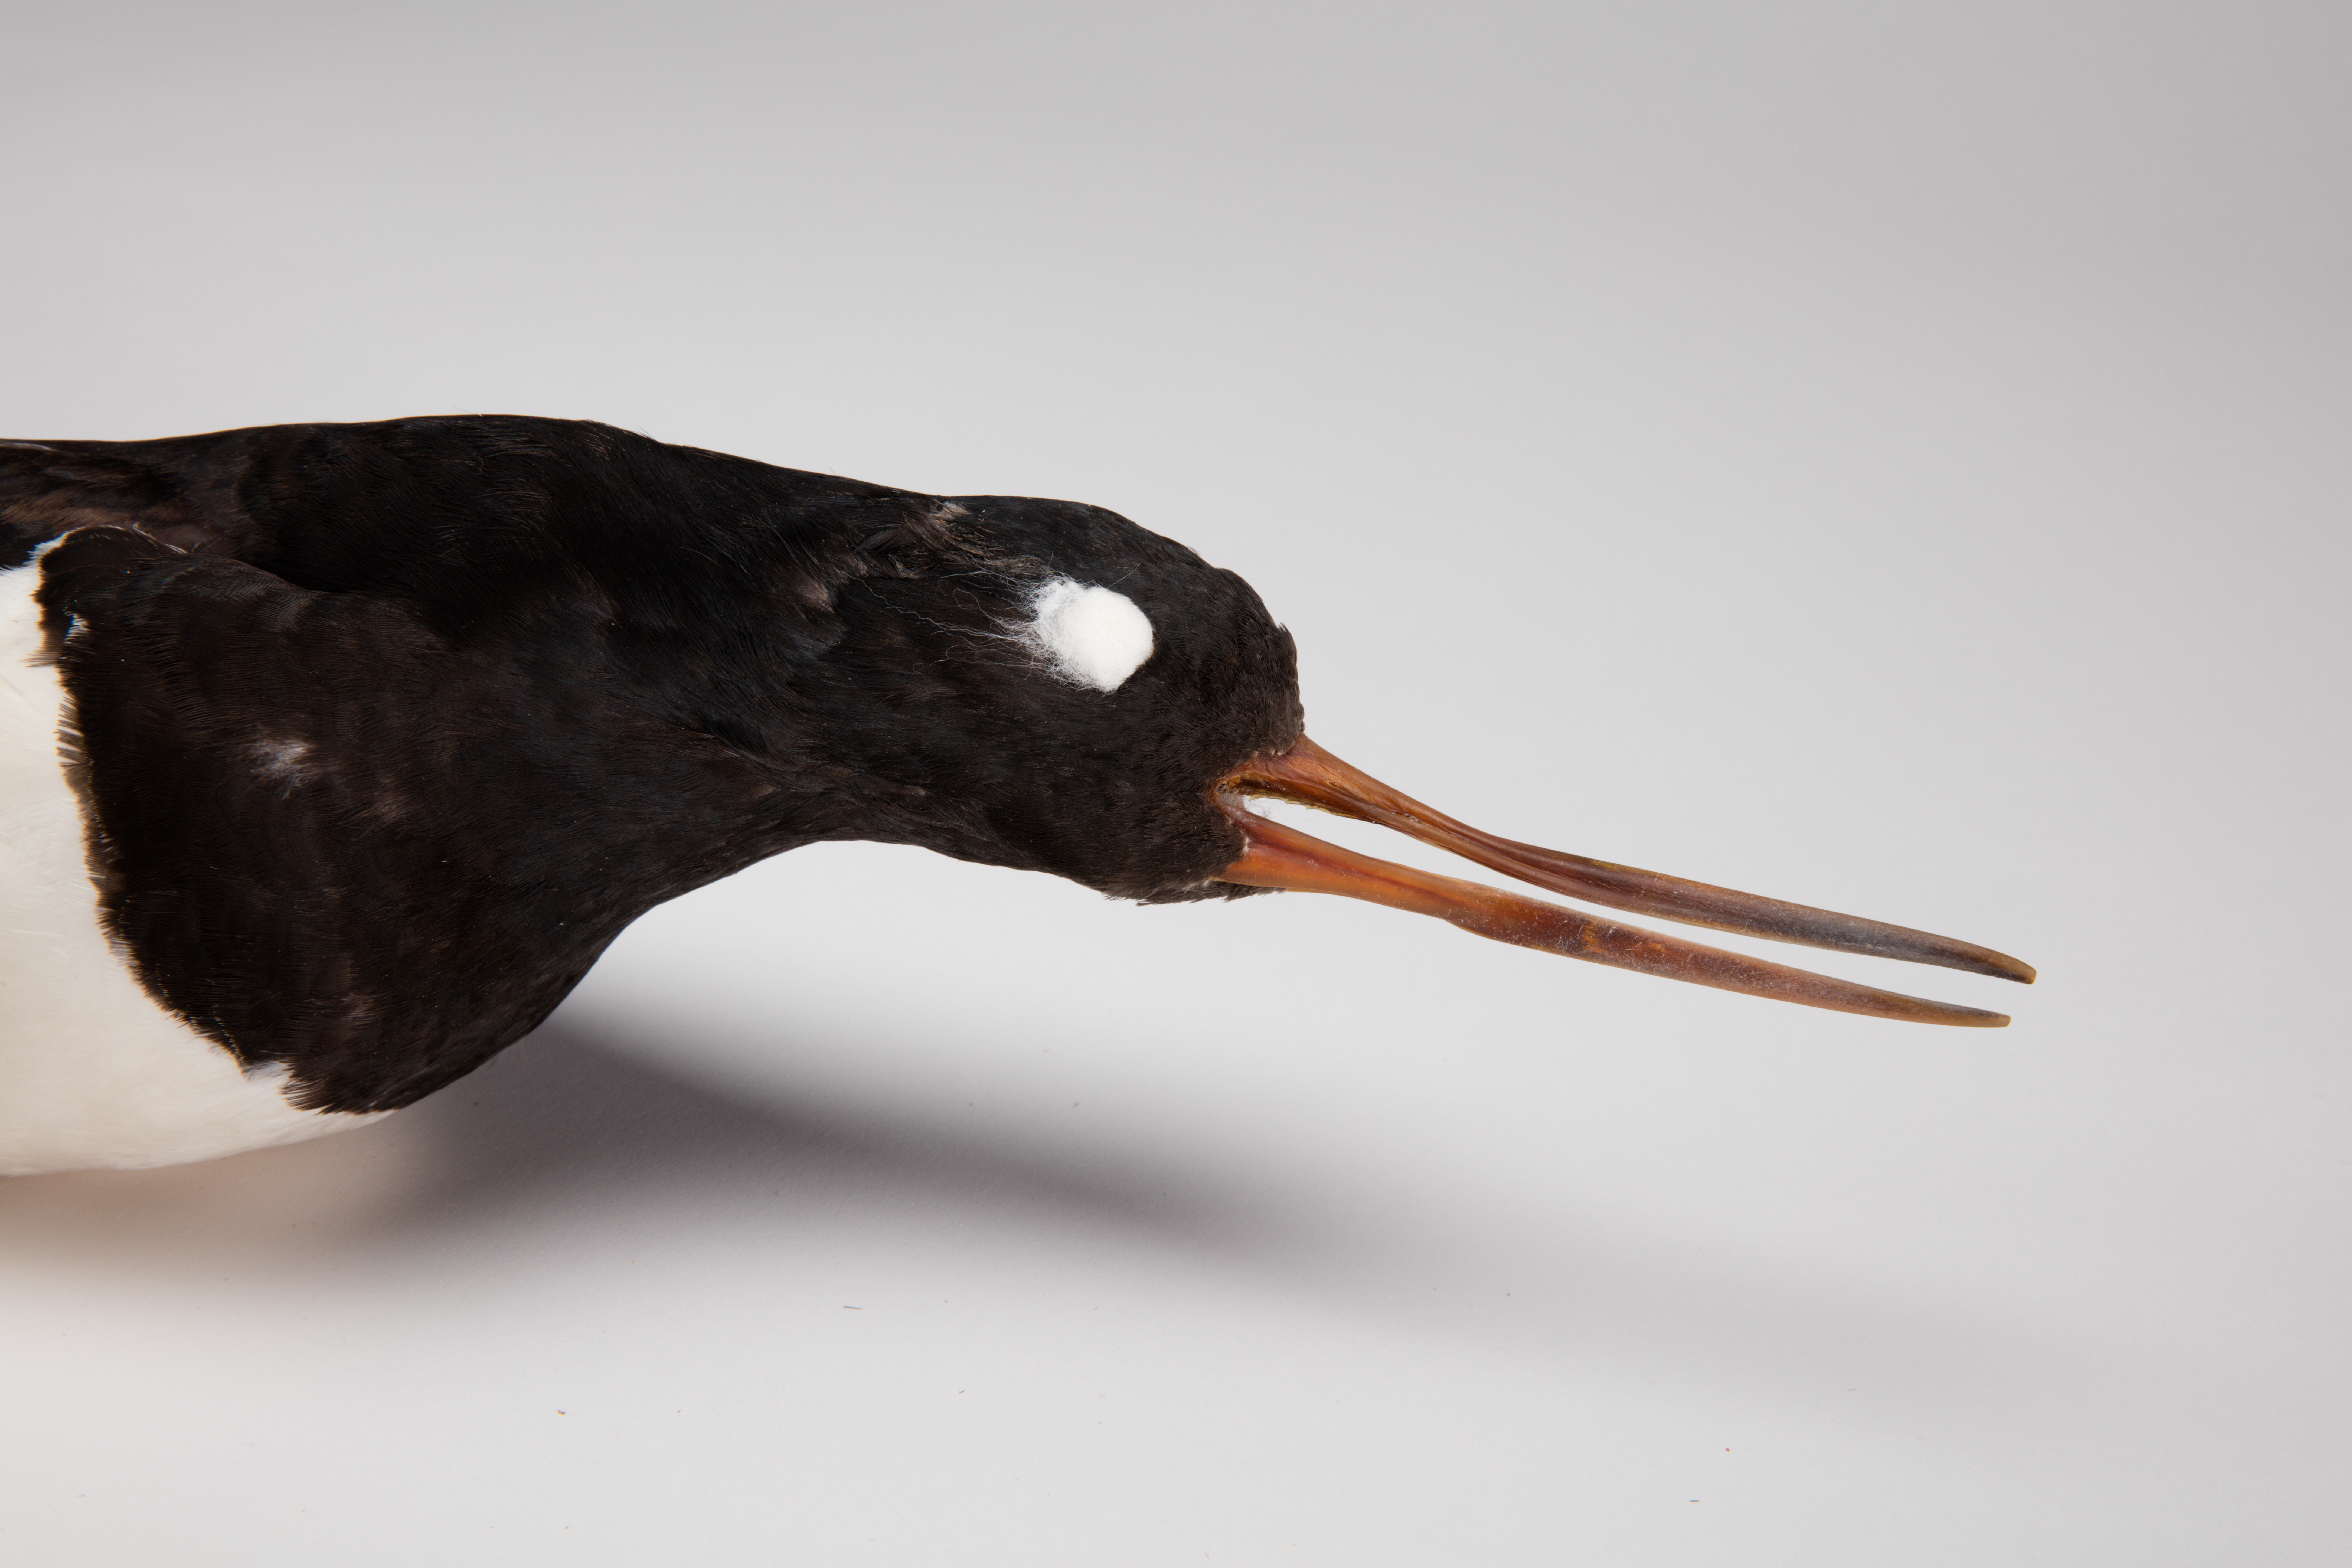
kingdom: Animalia
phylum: Chordata
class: Aves
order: Charadriiformes
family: Haematopodidae
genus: Haematopus
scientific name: Haematopus finschi
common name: South island oystercatcher
